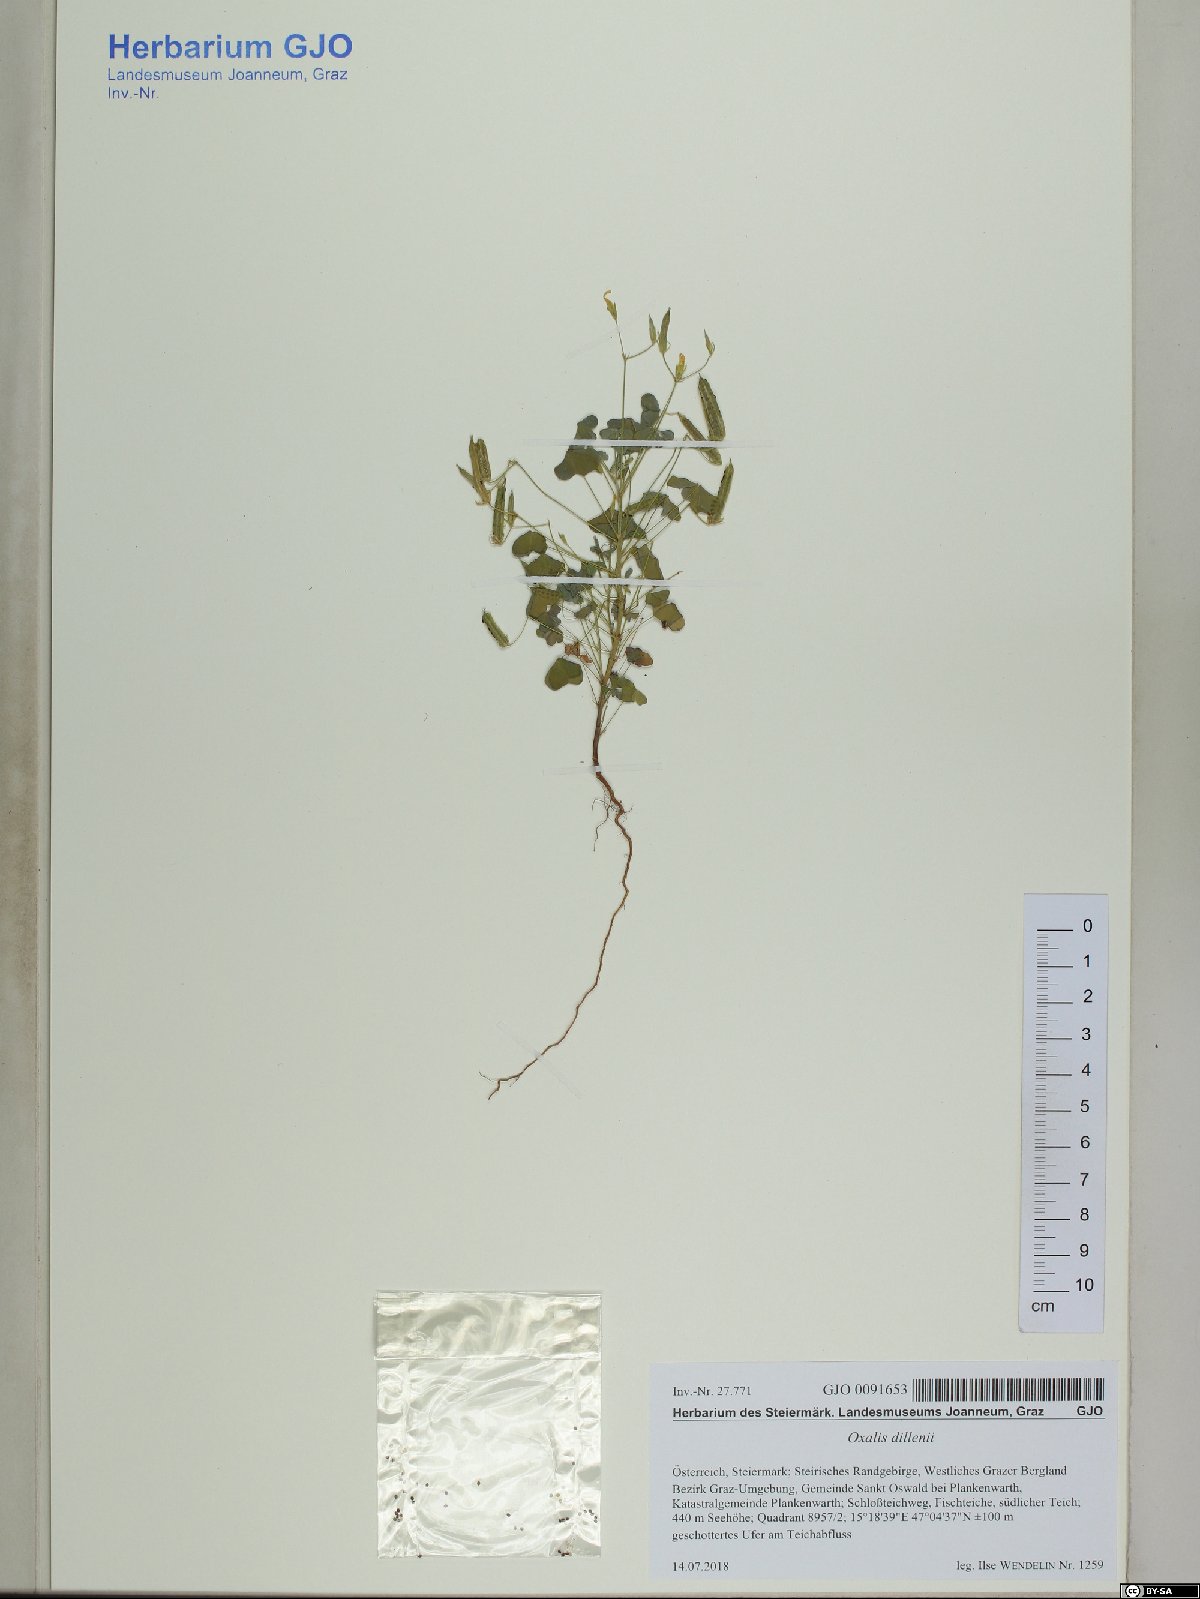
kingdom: Plantae
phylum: Tracheophyta
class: Magnoliopsida
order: Oxalidales
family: Oxalidaceae
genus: Oxalis
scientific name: Oxalis dillenii
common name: Sussex yellow-sorrel
